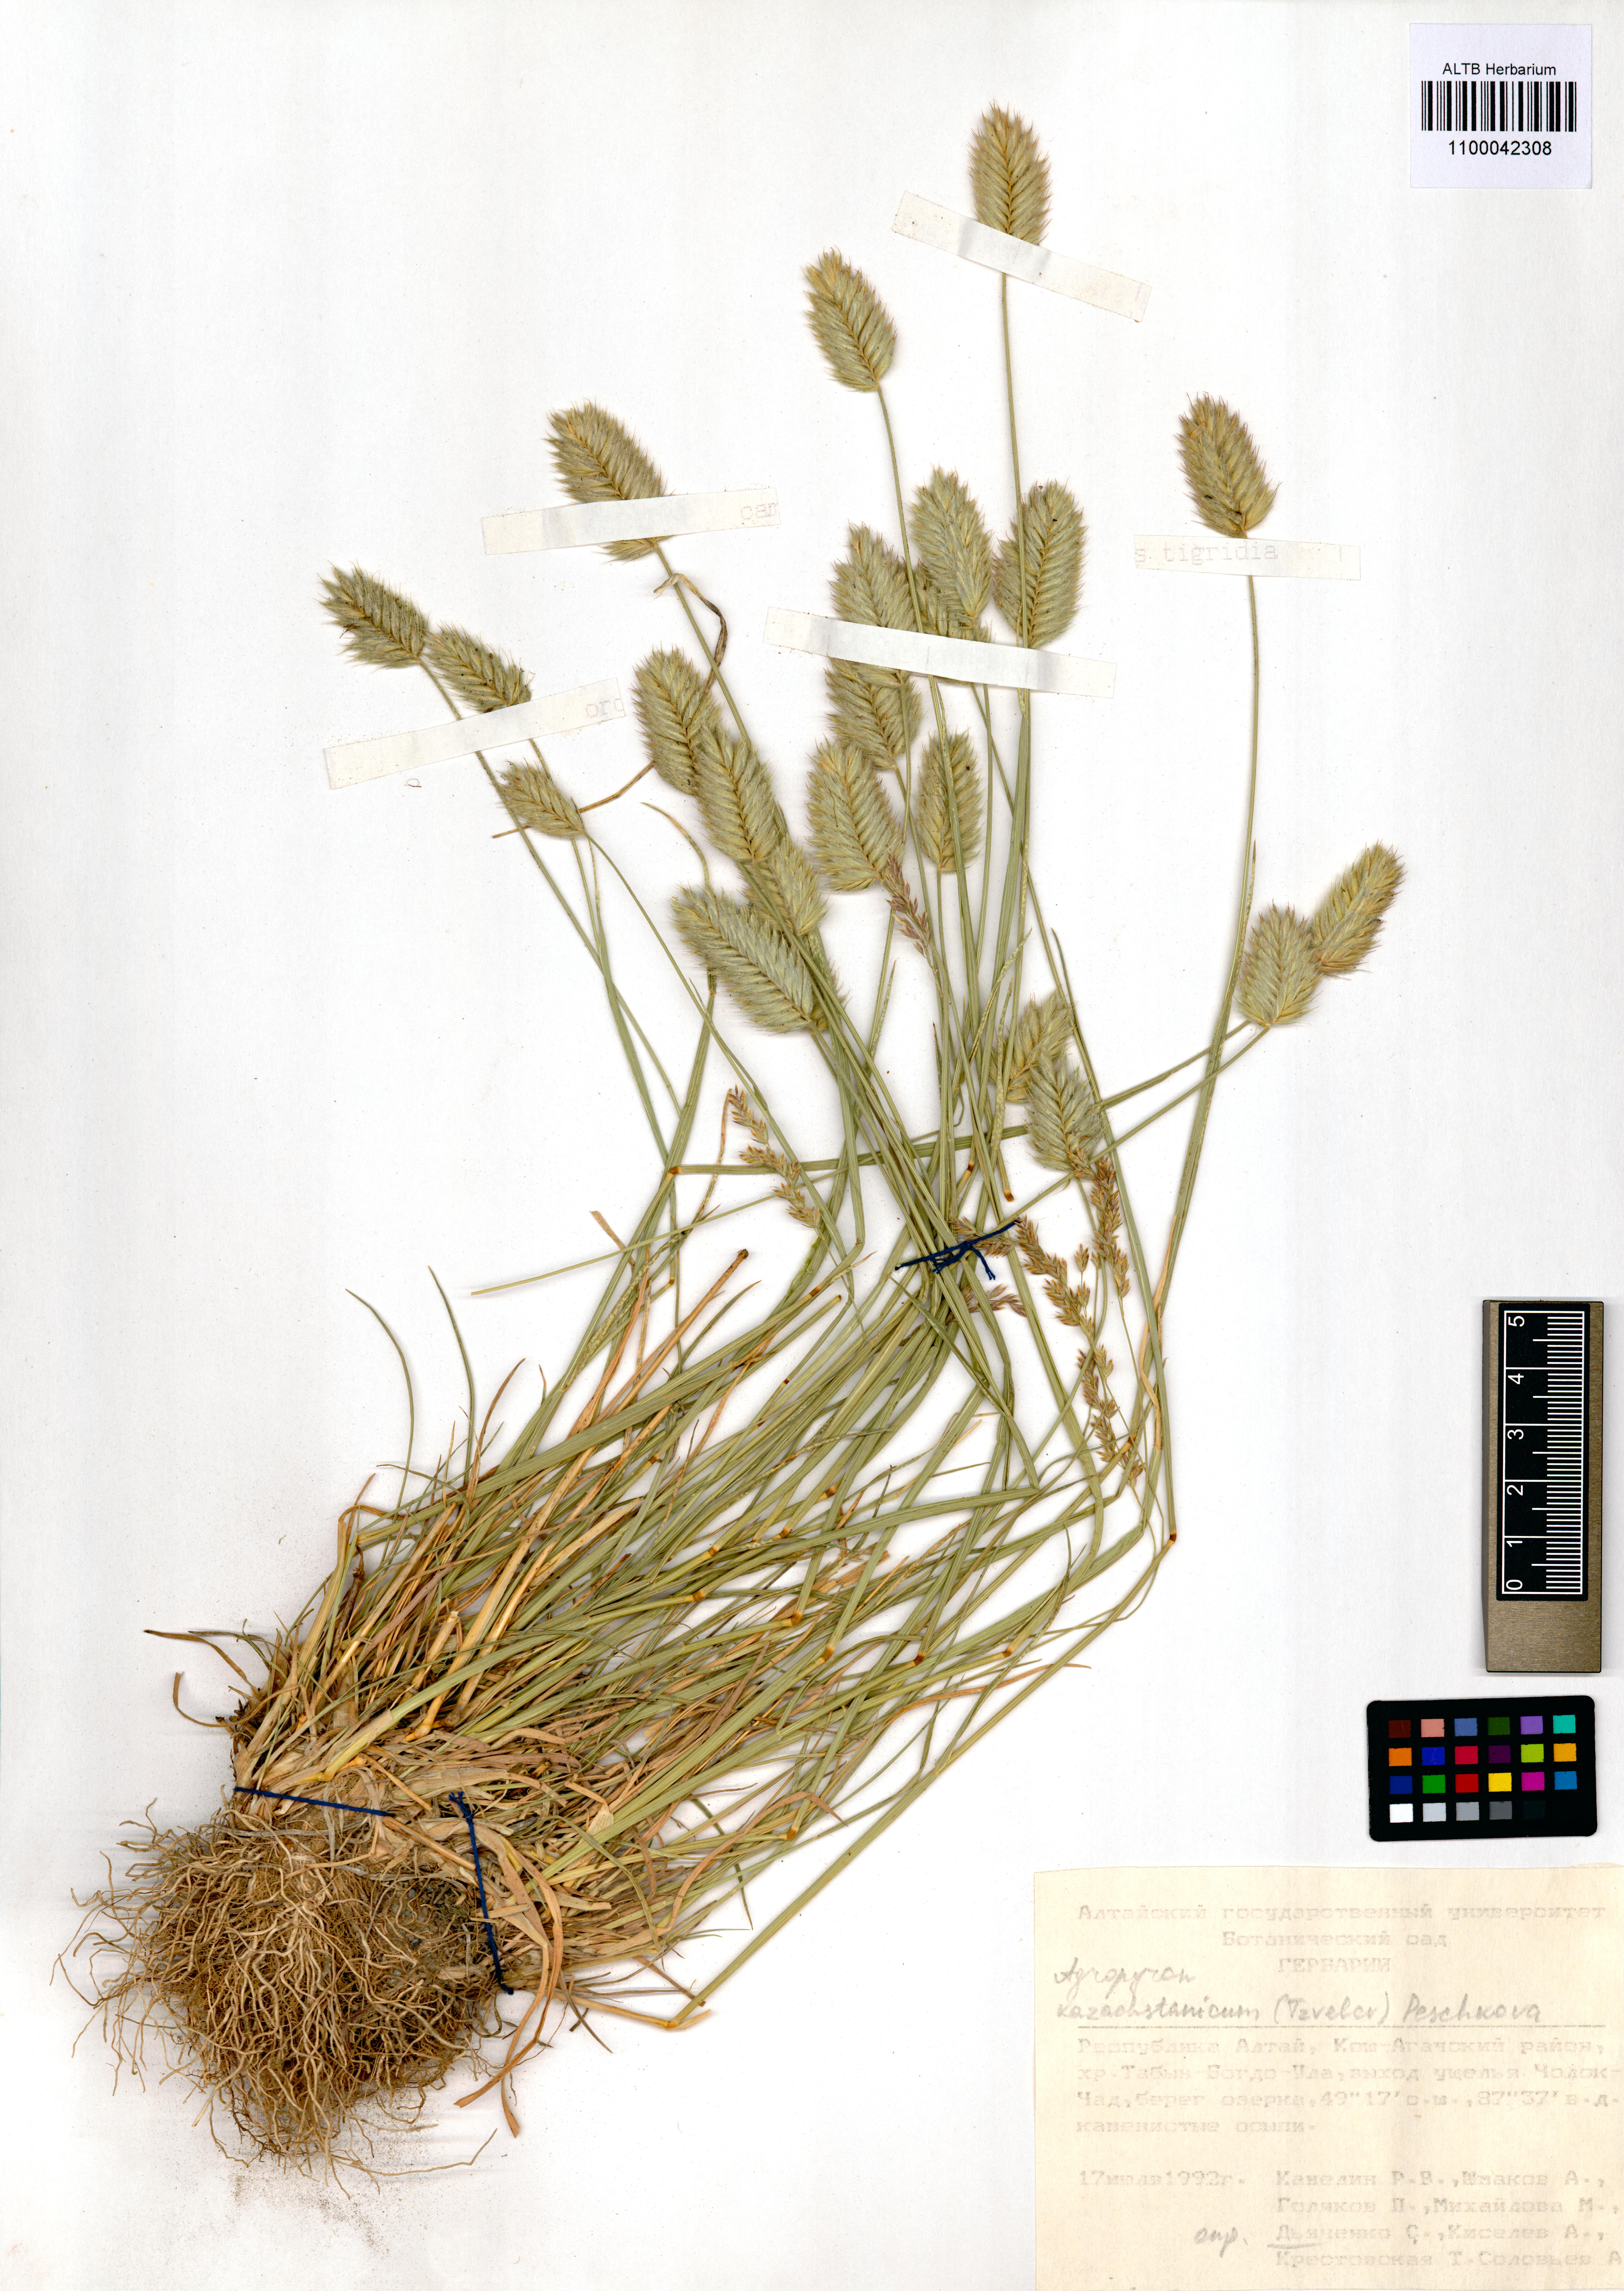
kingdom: Plantae
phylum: Tracheophyta
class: Liliopsida
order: Poales
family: Poaceae
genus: Agropyron
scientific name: Agropyron cristatum
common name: Crested wheatgrass
